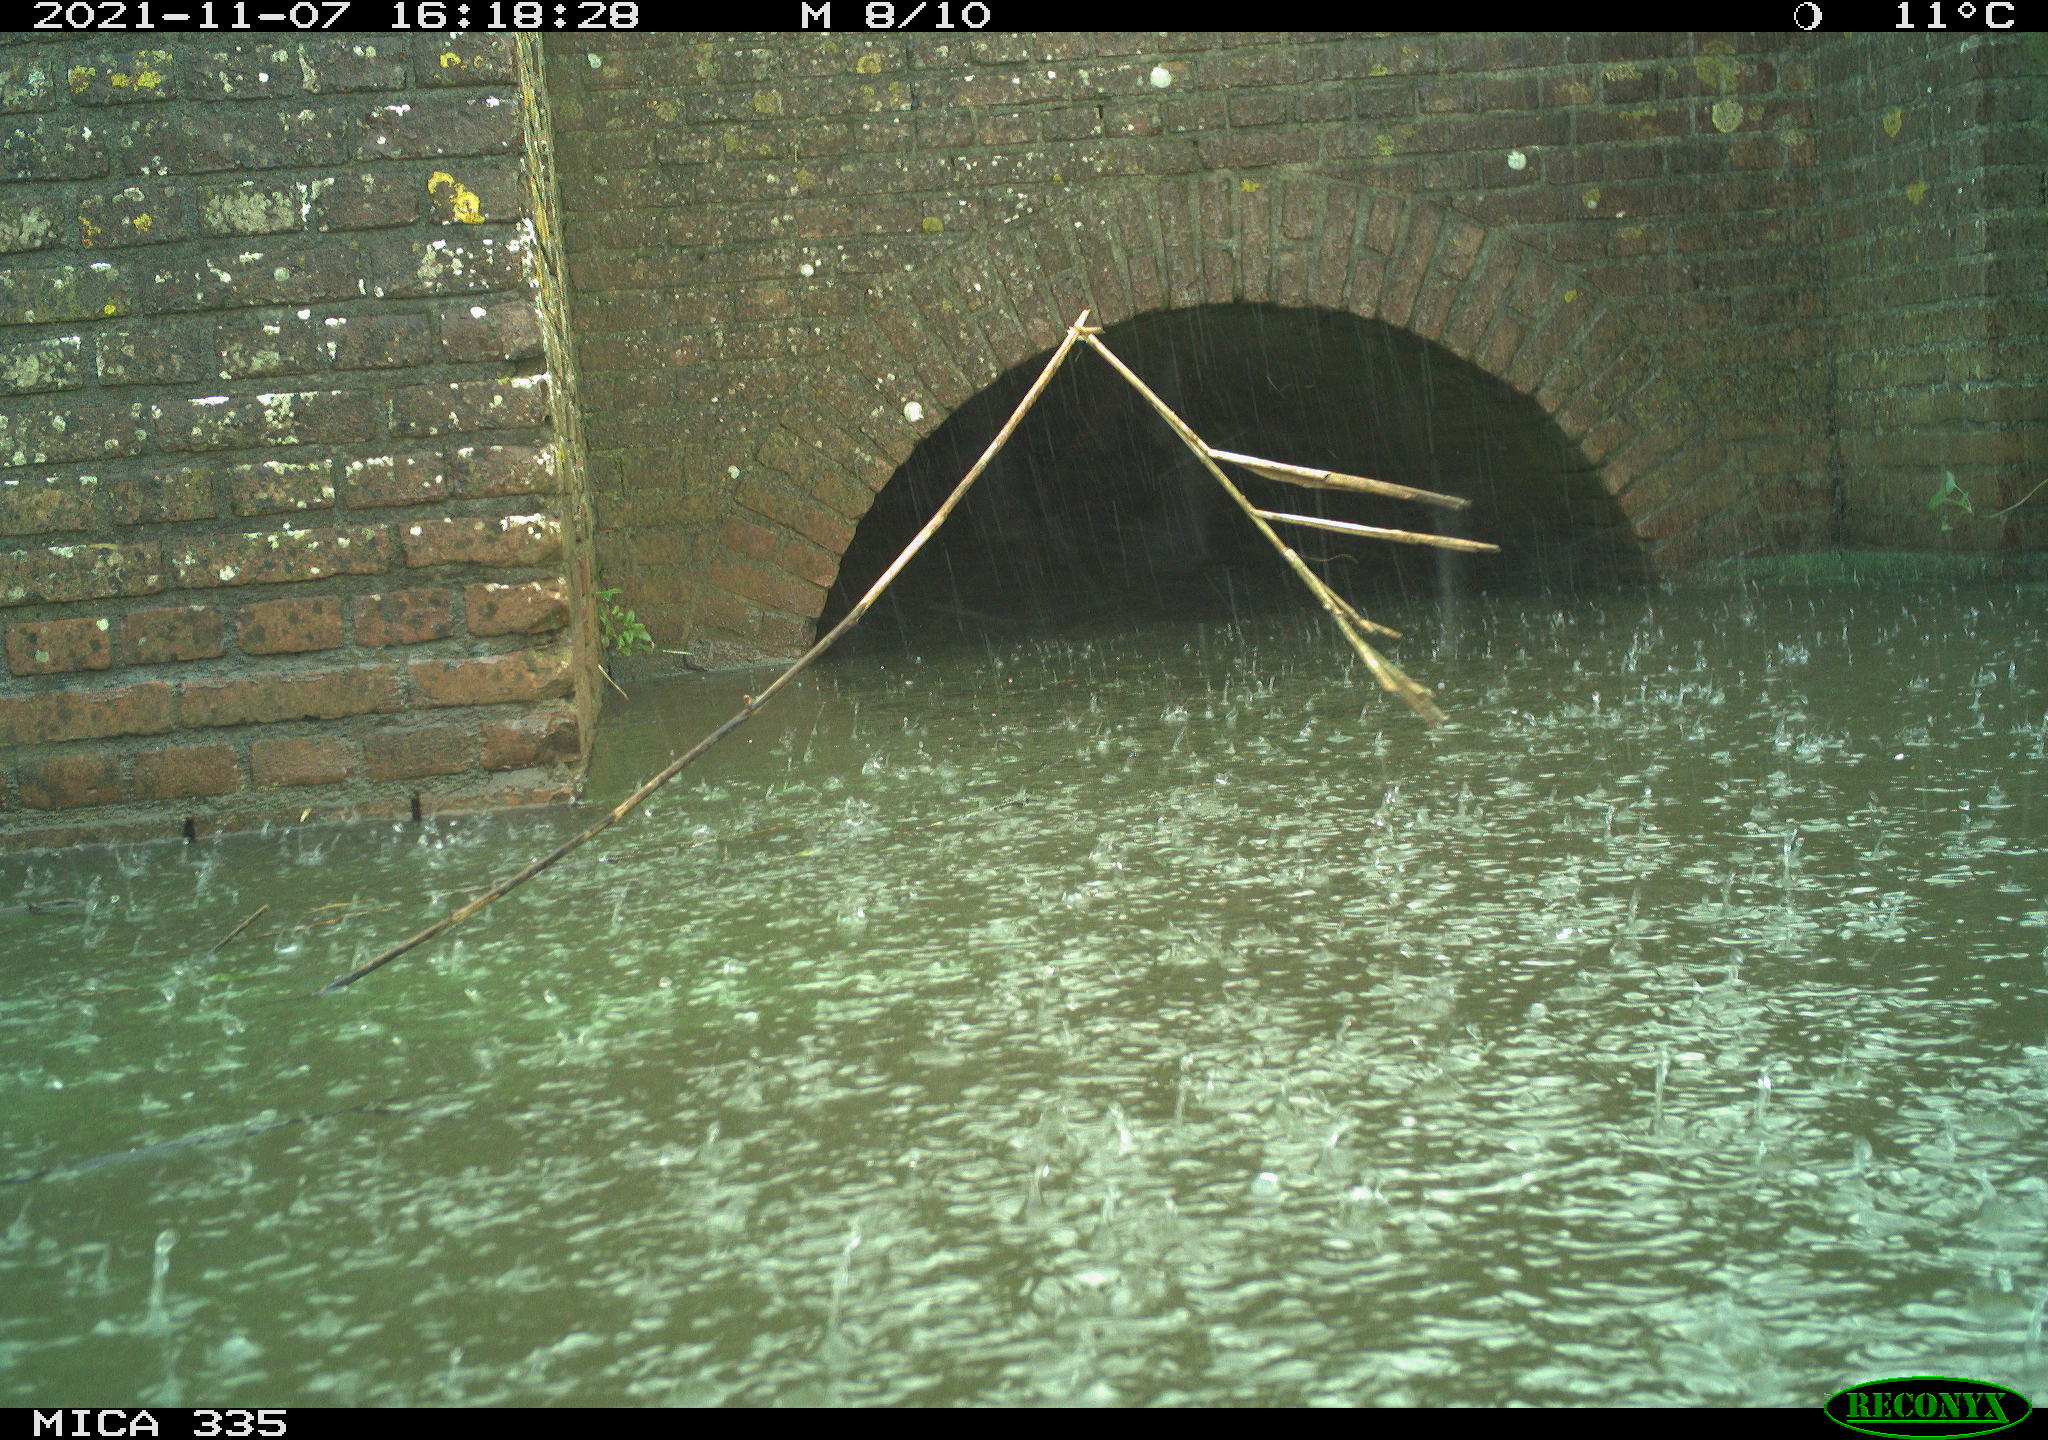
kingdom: Animalia
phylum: Chordata
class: Aves
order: Gruiformes
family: Rallidae
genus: Fulica
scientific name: Fulica atra
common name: Eurasian coot
